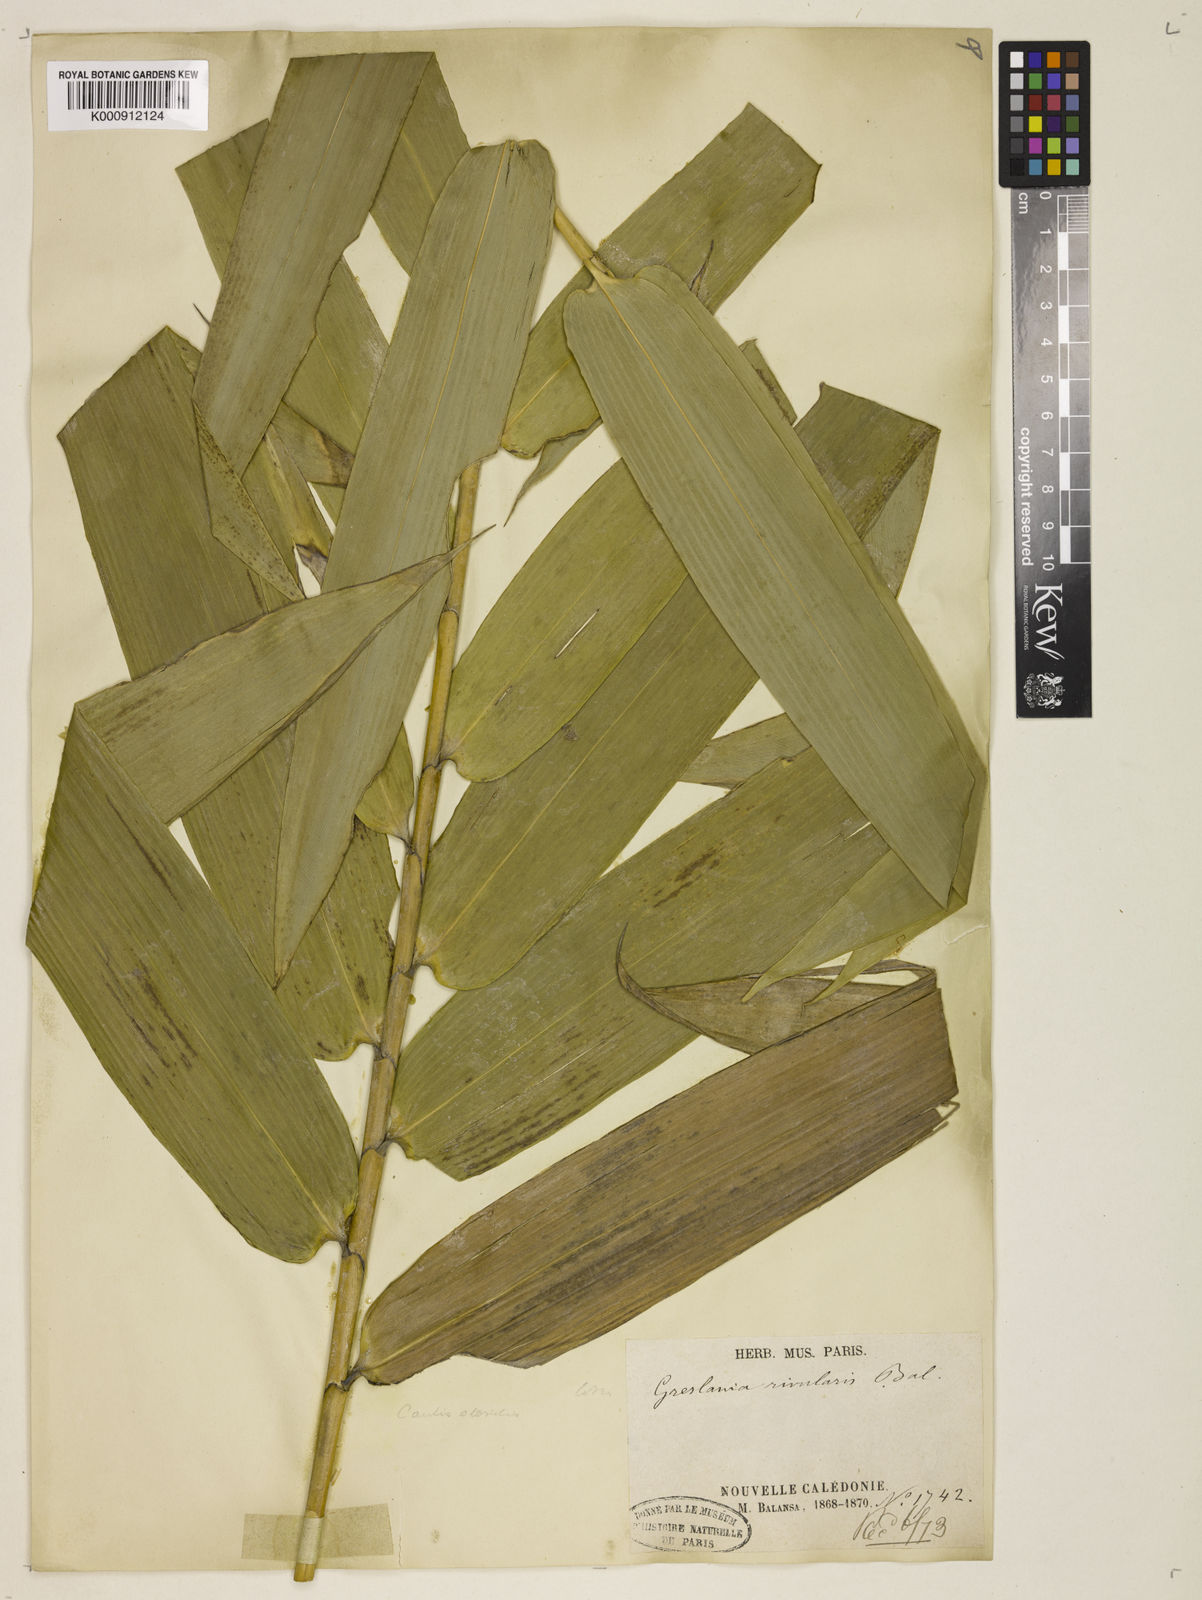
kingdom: Plantae
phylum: Tracheophyta
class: Liliopsida
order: Poales
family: Poaceae
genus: Greslania
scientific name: Greslania rivularis
